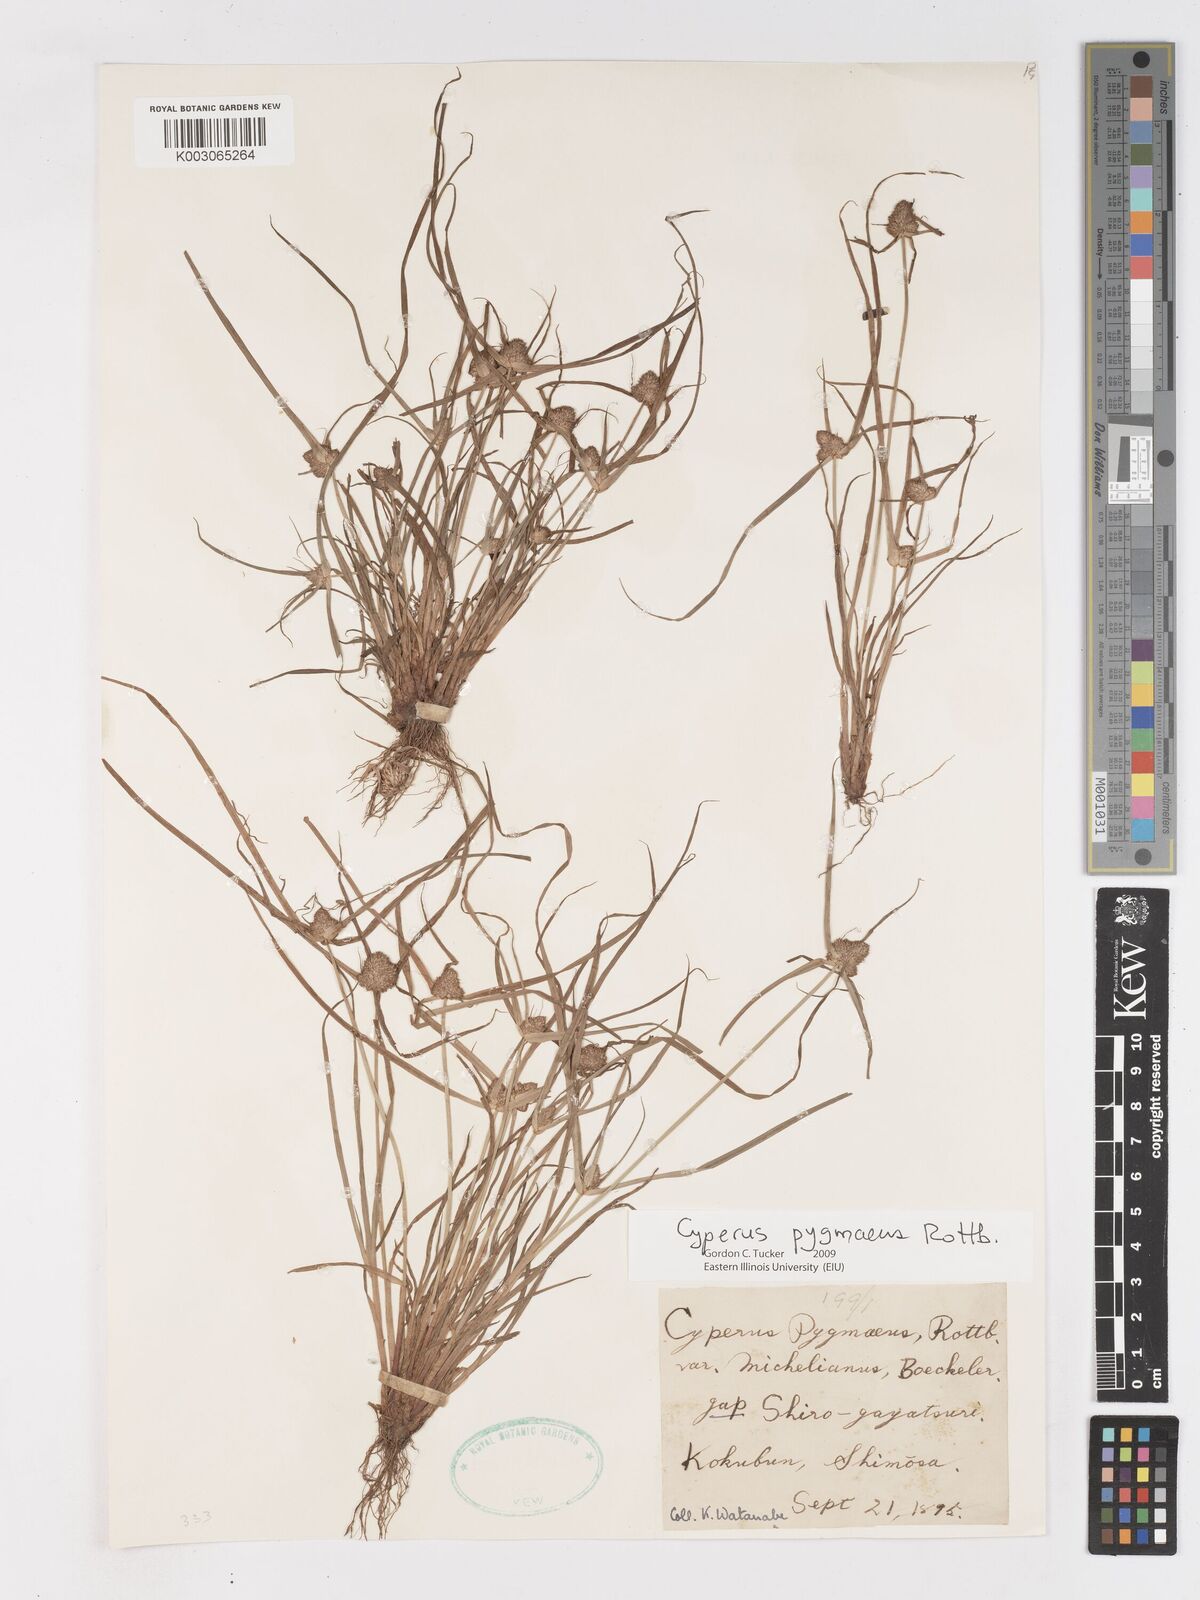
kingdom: Plantae
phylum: Tracheophyta
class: Liliopsida
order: Poales
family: Cyperaceae
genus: Cyperus
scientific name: Cyperus michelianus
